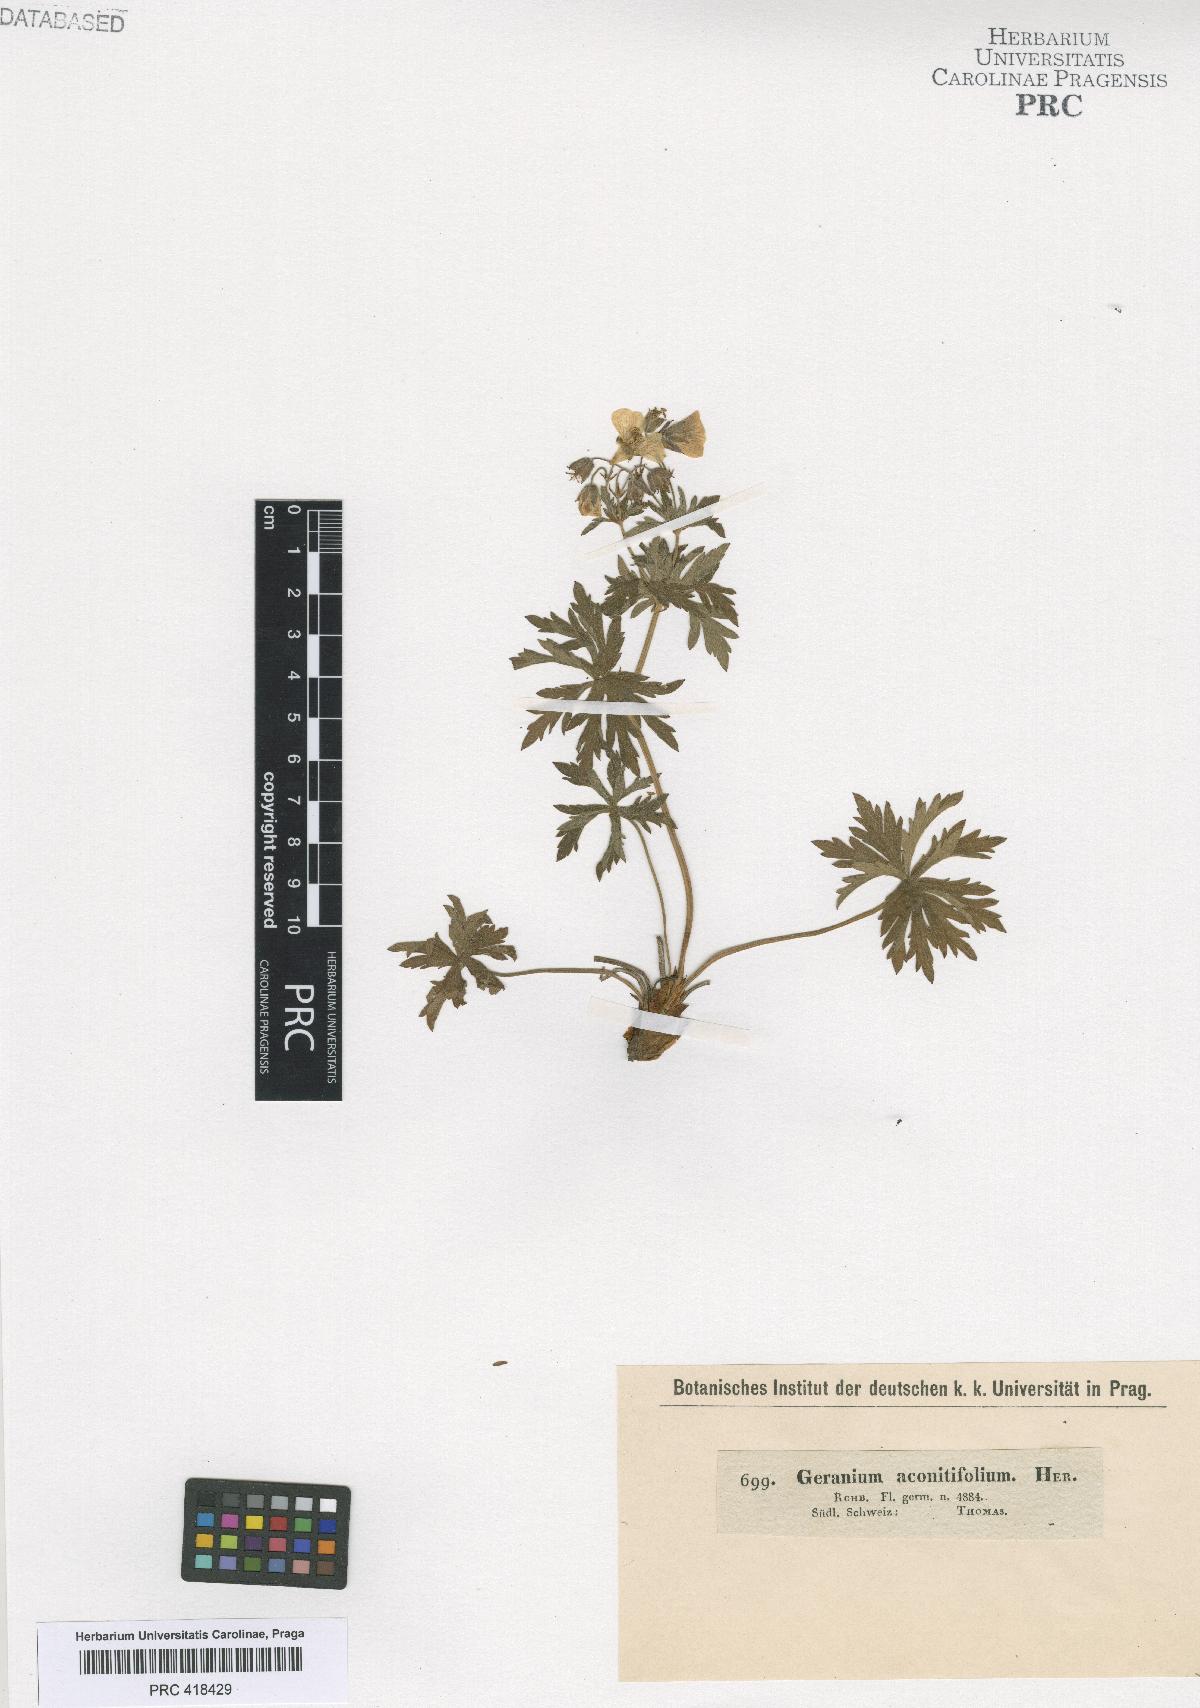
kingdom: Plantae
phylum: Tracheophyta
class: Magnoliopsida
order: Geraniales
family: Geraniaceae
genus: Geranium
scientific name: Geranium rivulare
